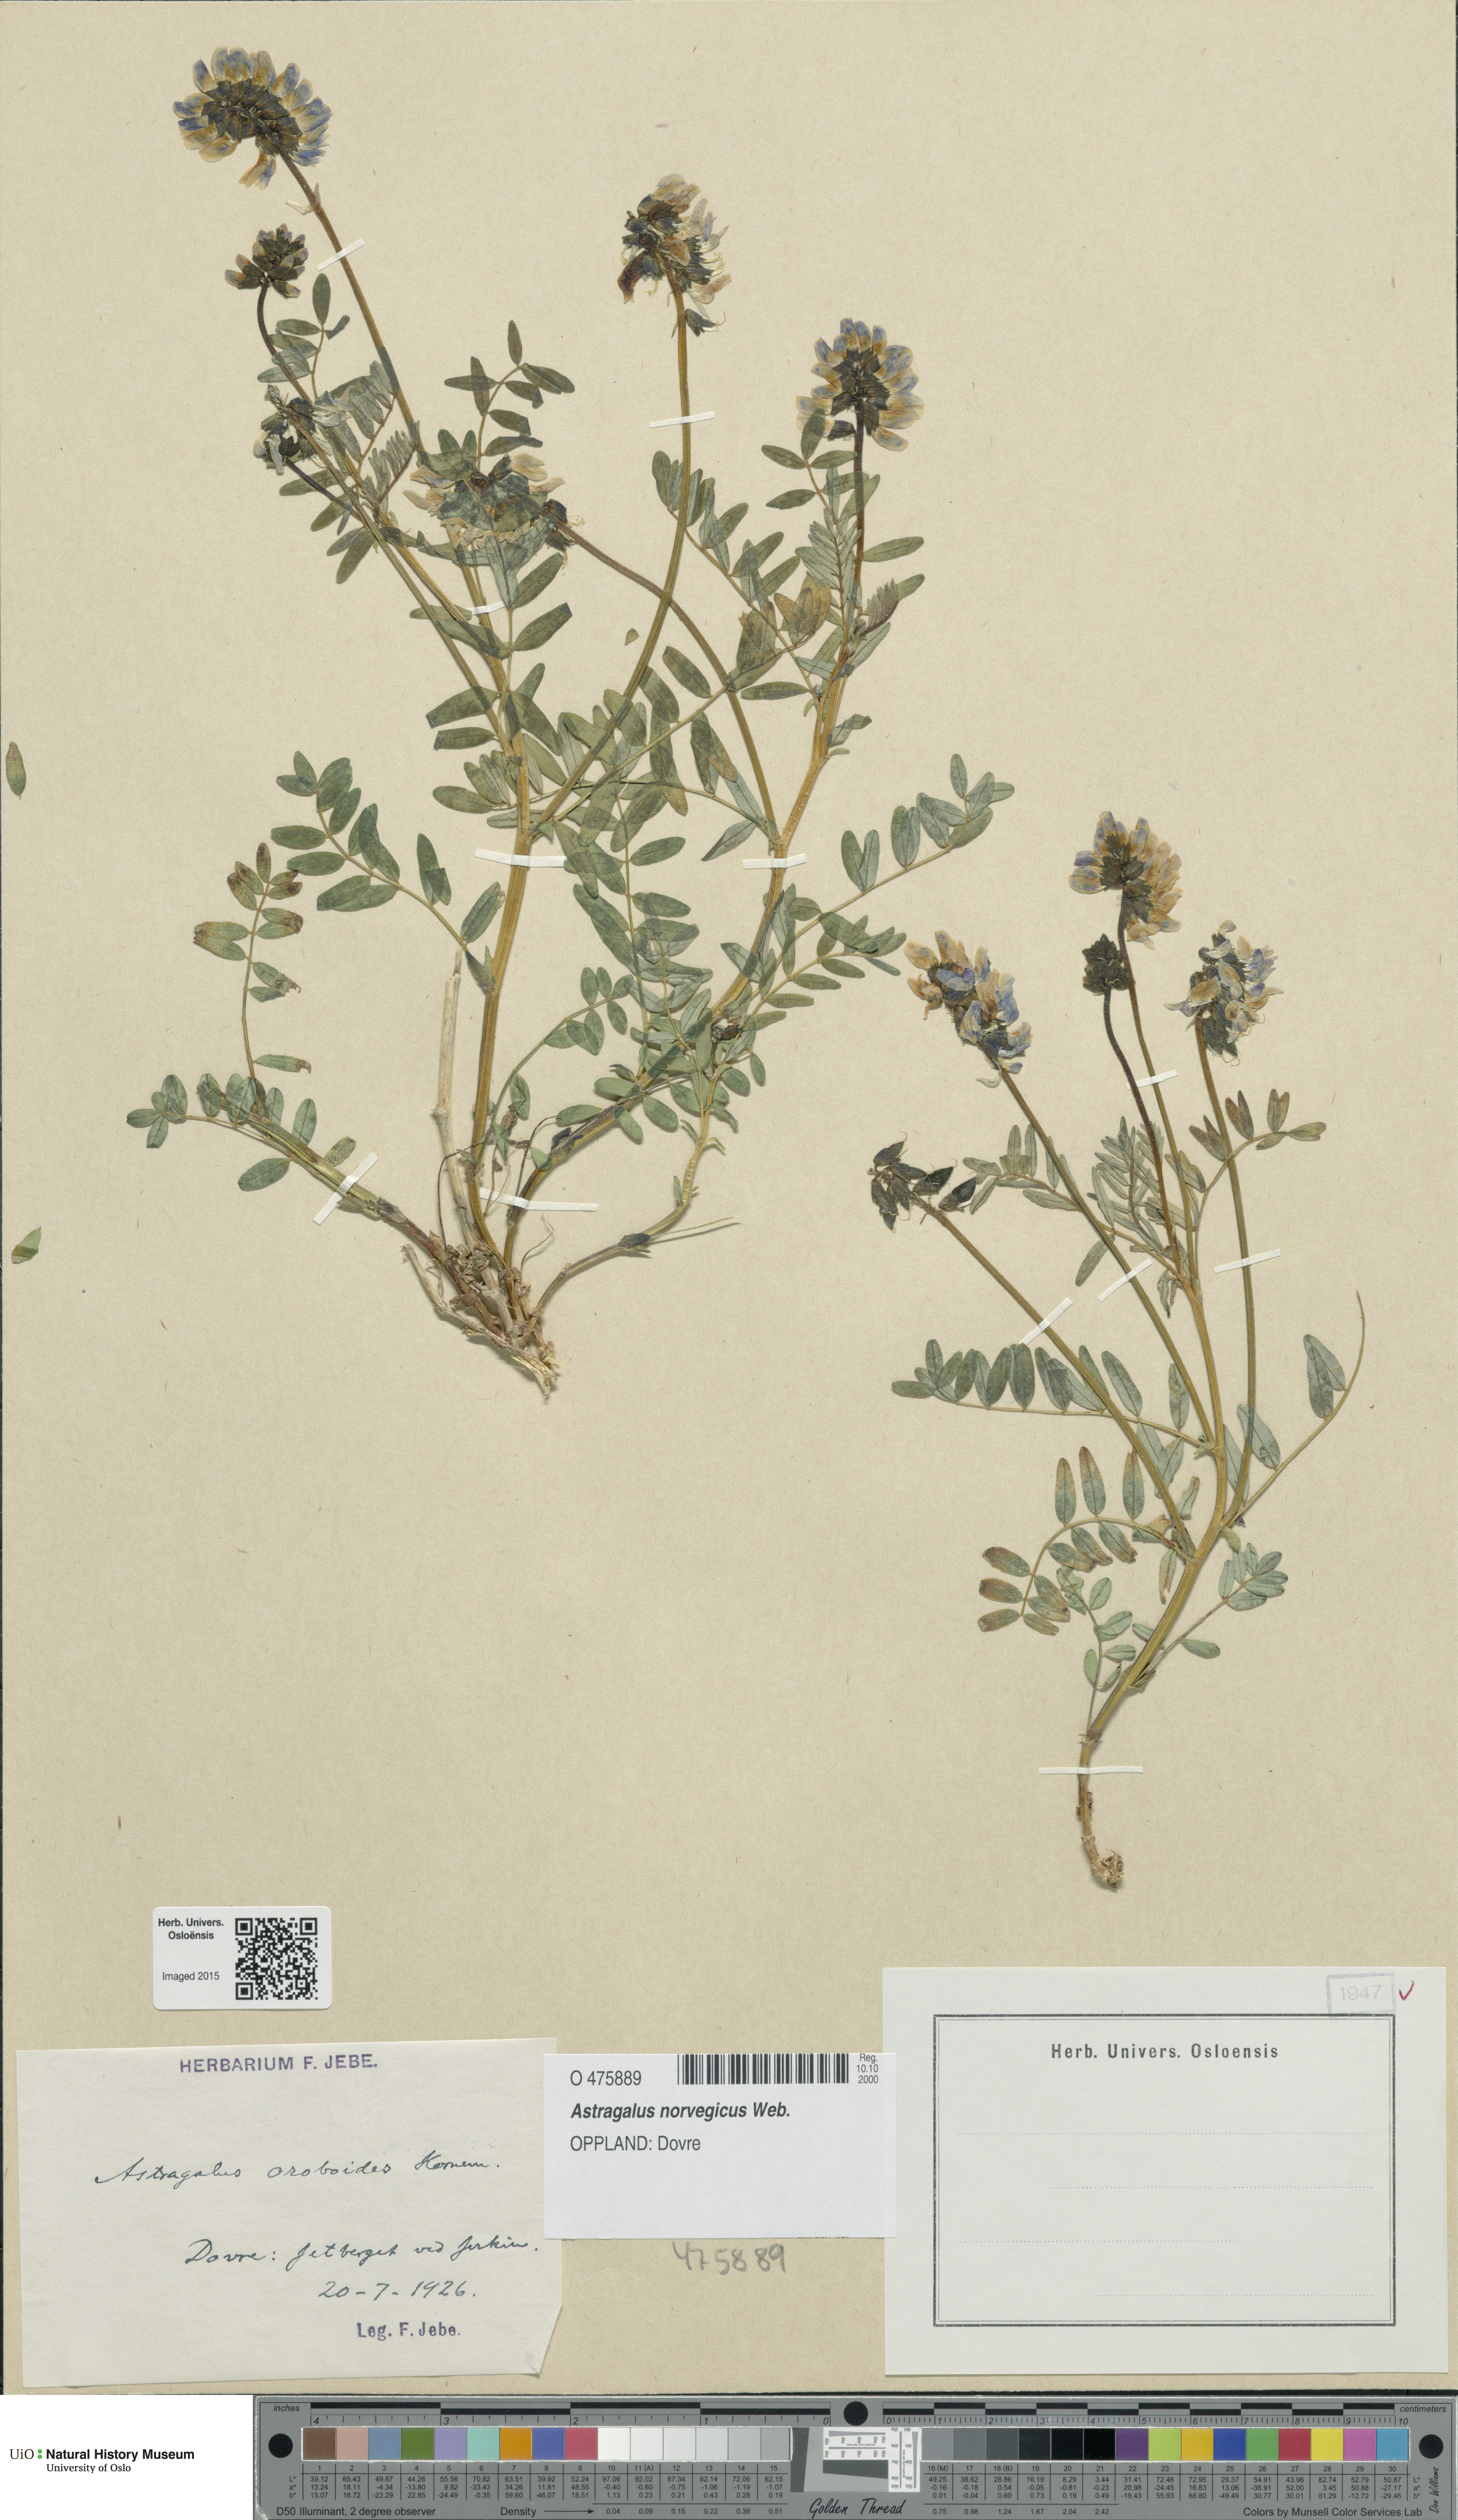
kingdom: Plantae
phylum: Tracheophyta
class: Magnoliopsida
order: Fabales
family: Fabaceae
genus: Astragalus
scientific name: Astragalus norvegicus
